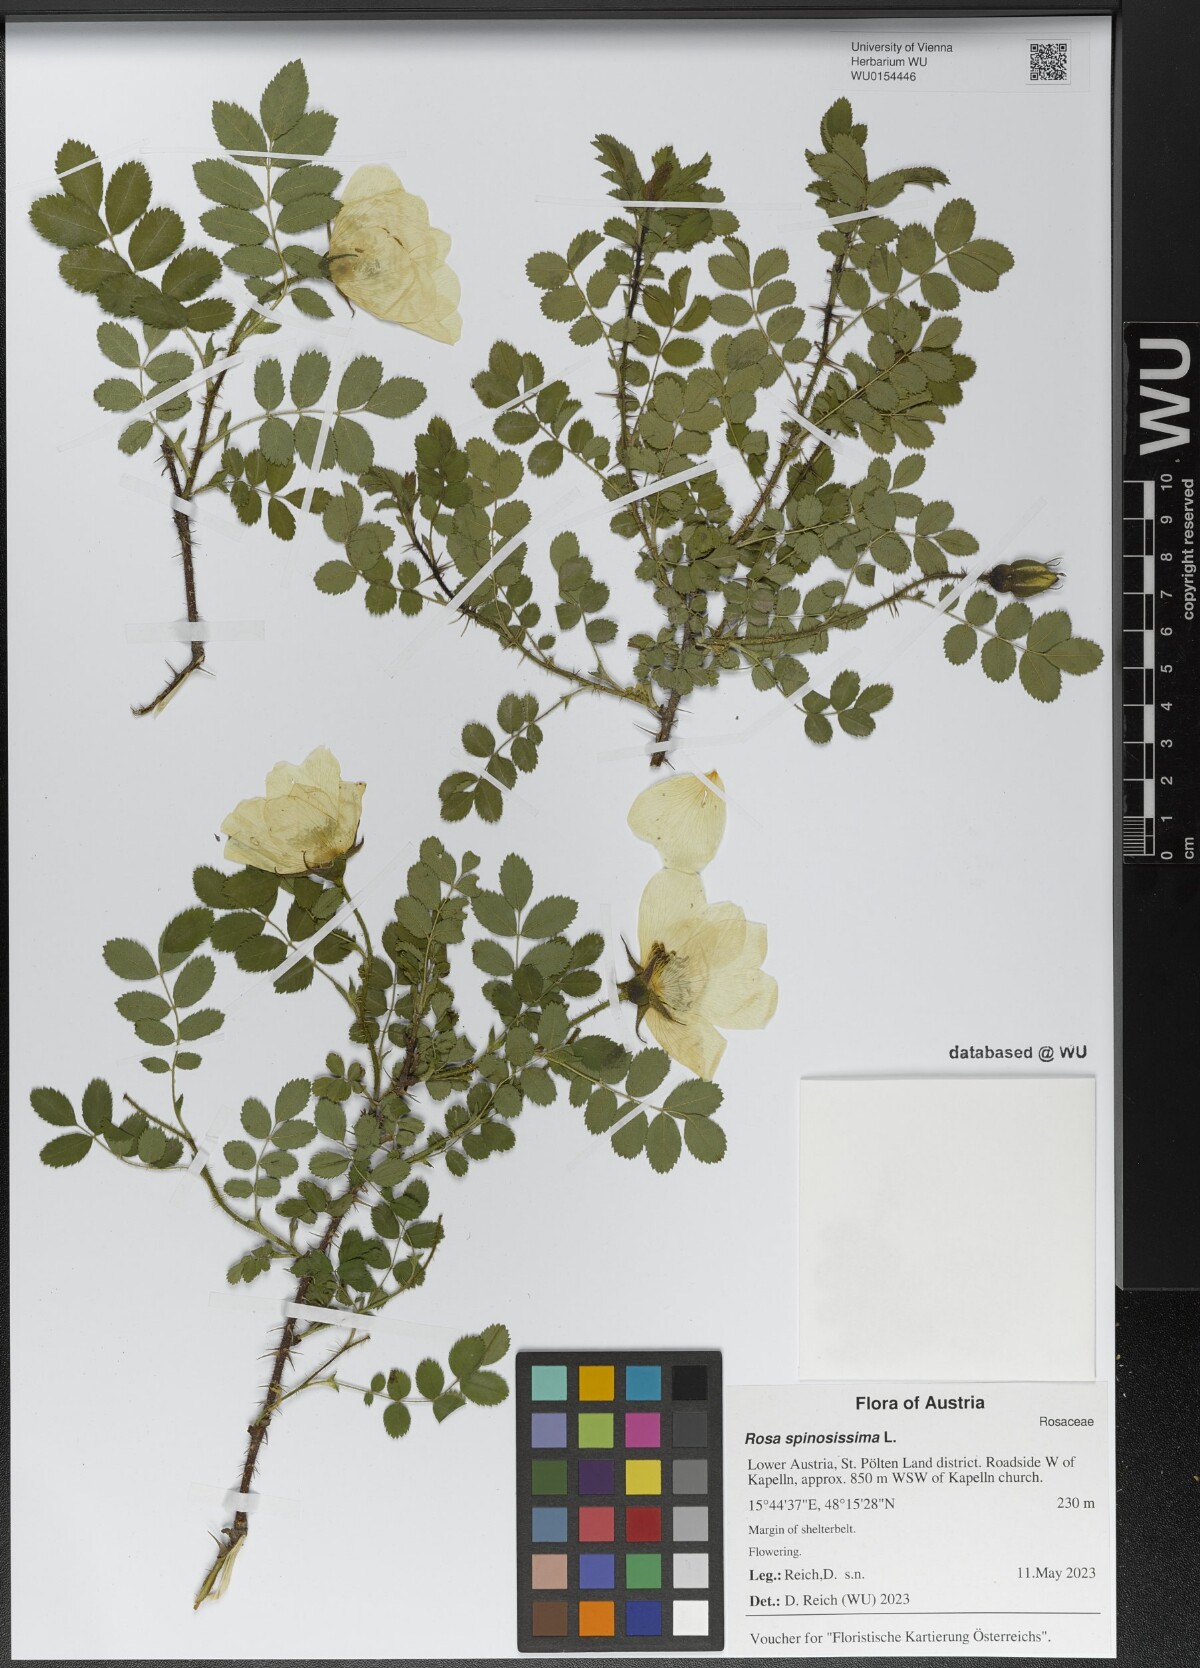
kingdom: Plantae
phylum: Tracheophyta
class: Magnoliopsida
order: Rosales
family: Rosaceae
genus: Rosa
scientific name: Rosa spinosissima
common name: Burnet rose
